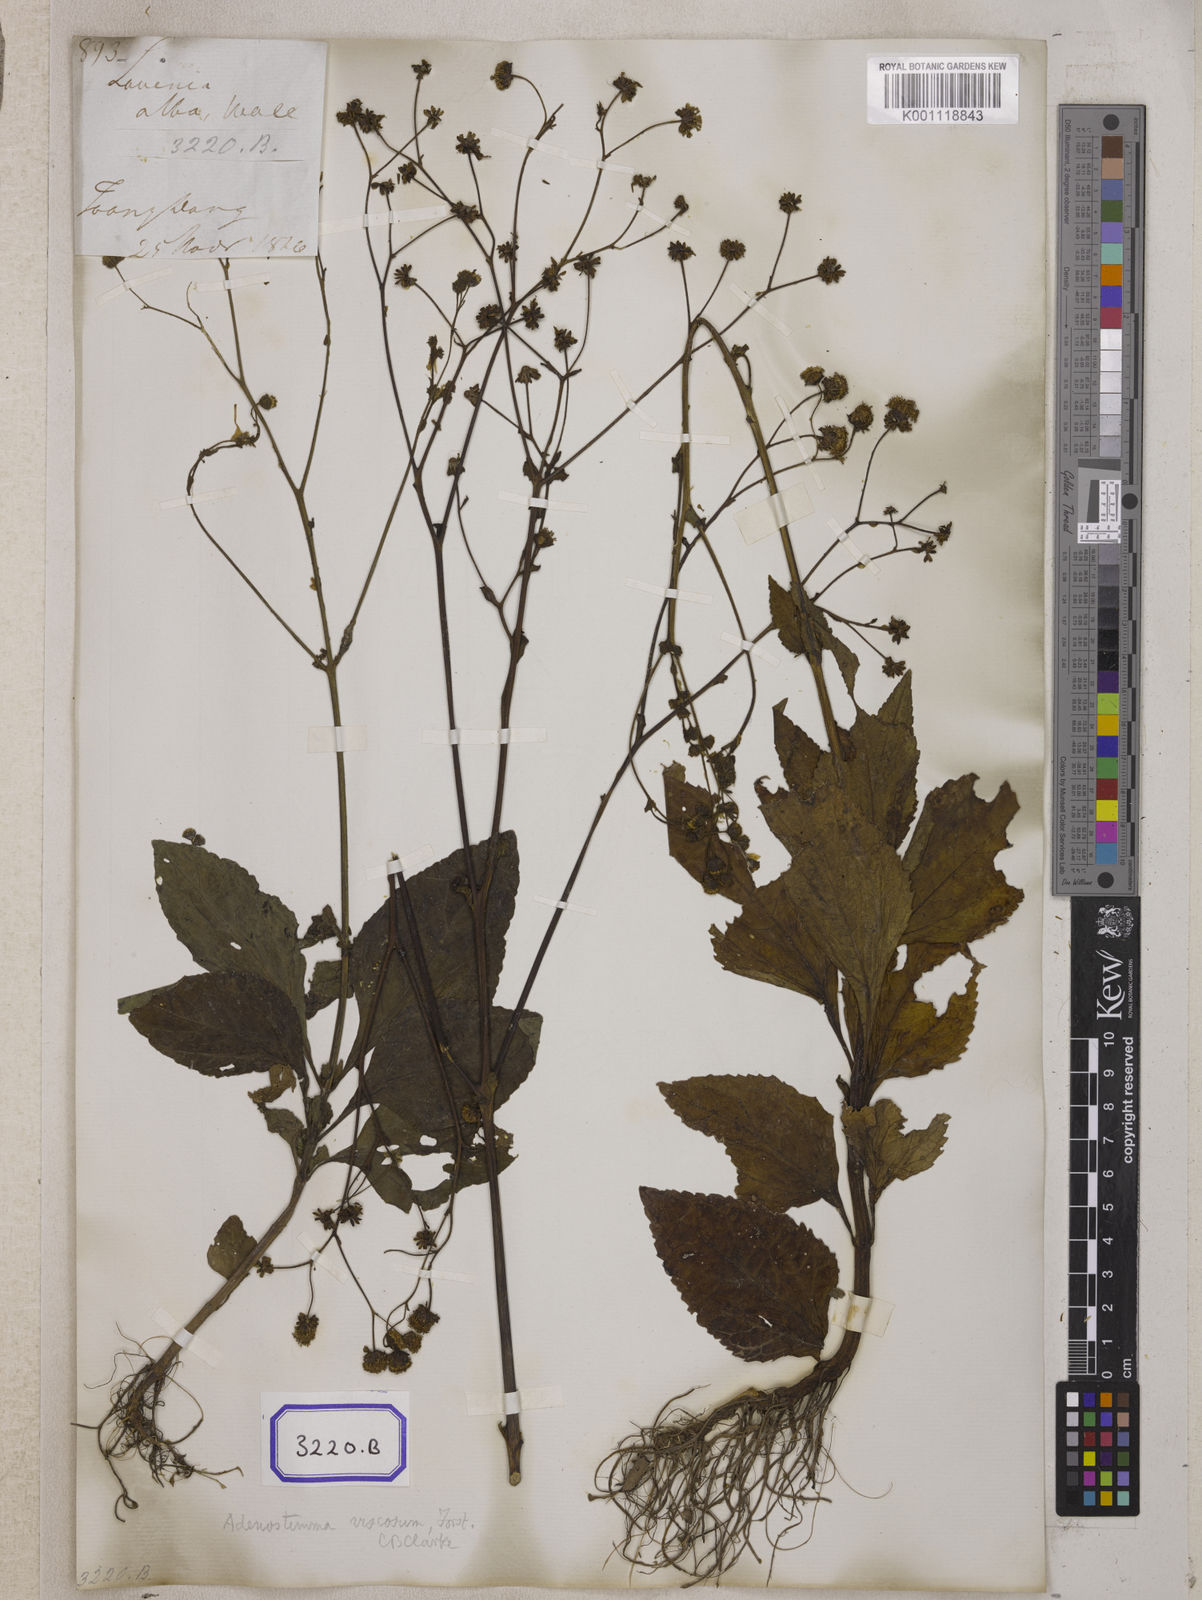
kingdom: Plantae
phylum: Tracheophyta
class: Magnoliopsida
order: Asterales
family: Asteraceae
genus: Adenostemma
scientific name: Adenostemma viscosum
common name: Dungweed
